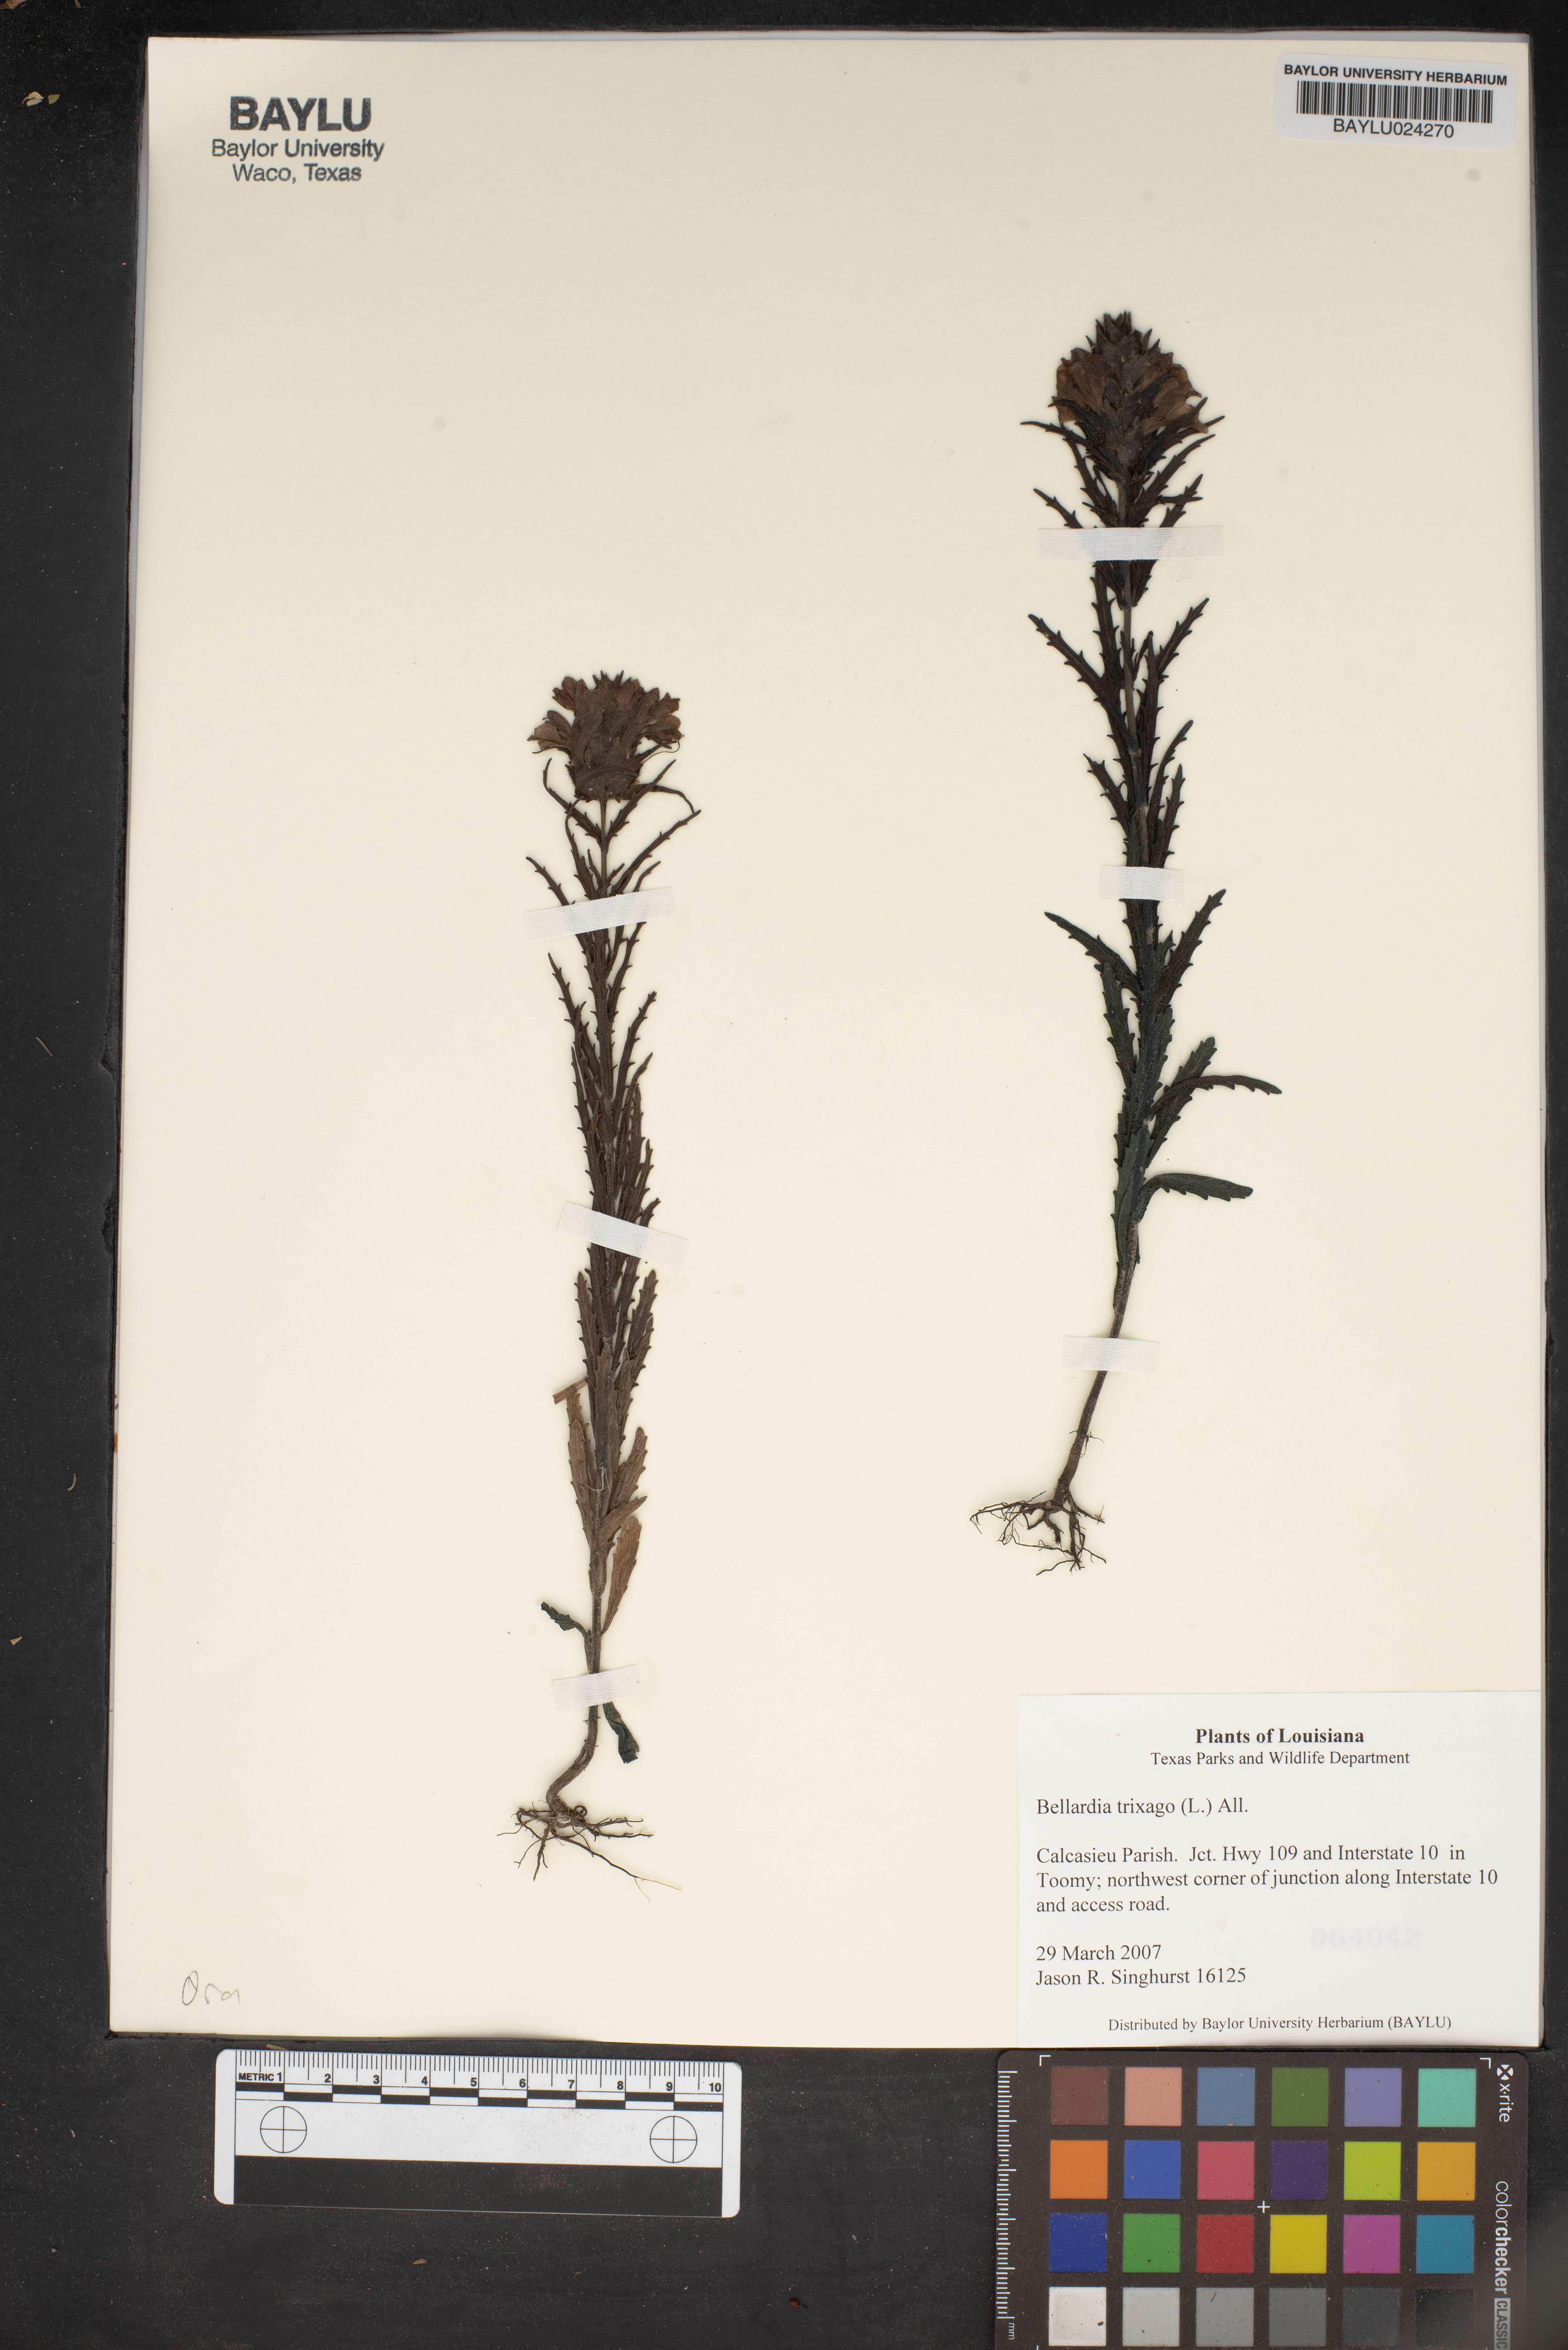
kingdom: Plantae
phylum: Tracheophyta
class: Magnoliopsida
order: Lamiales
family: Orobanchaceae
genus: Bellardia
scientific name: Bellardia trixago
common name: Mediterranean lineseed
